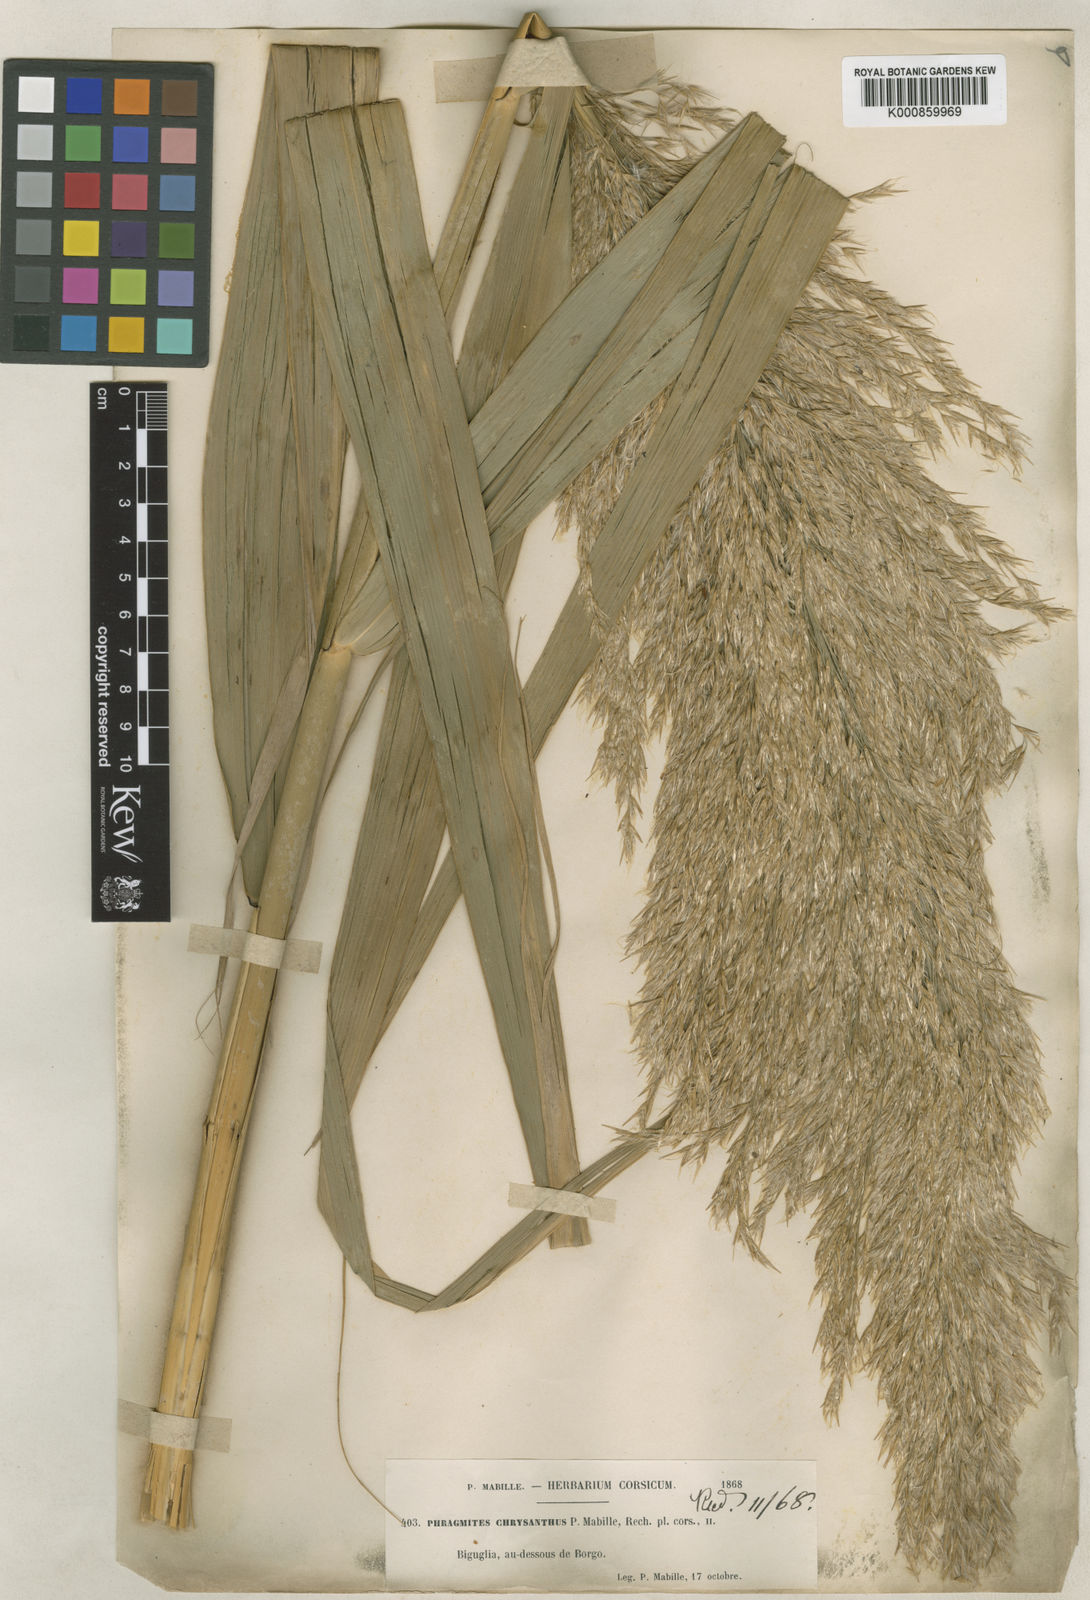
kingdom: Plantae
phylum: Tracheophyta
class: Liliopsida
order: Poales
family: Poaceae
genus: Phragmites
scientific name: Phragmites australis
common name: Common reed
